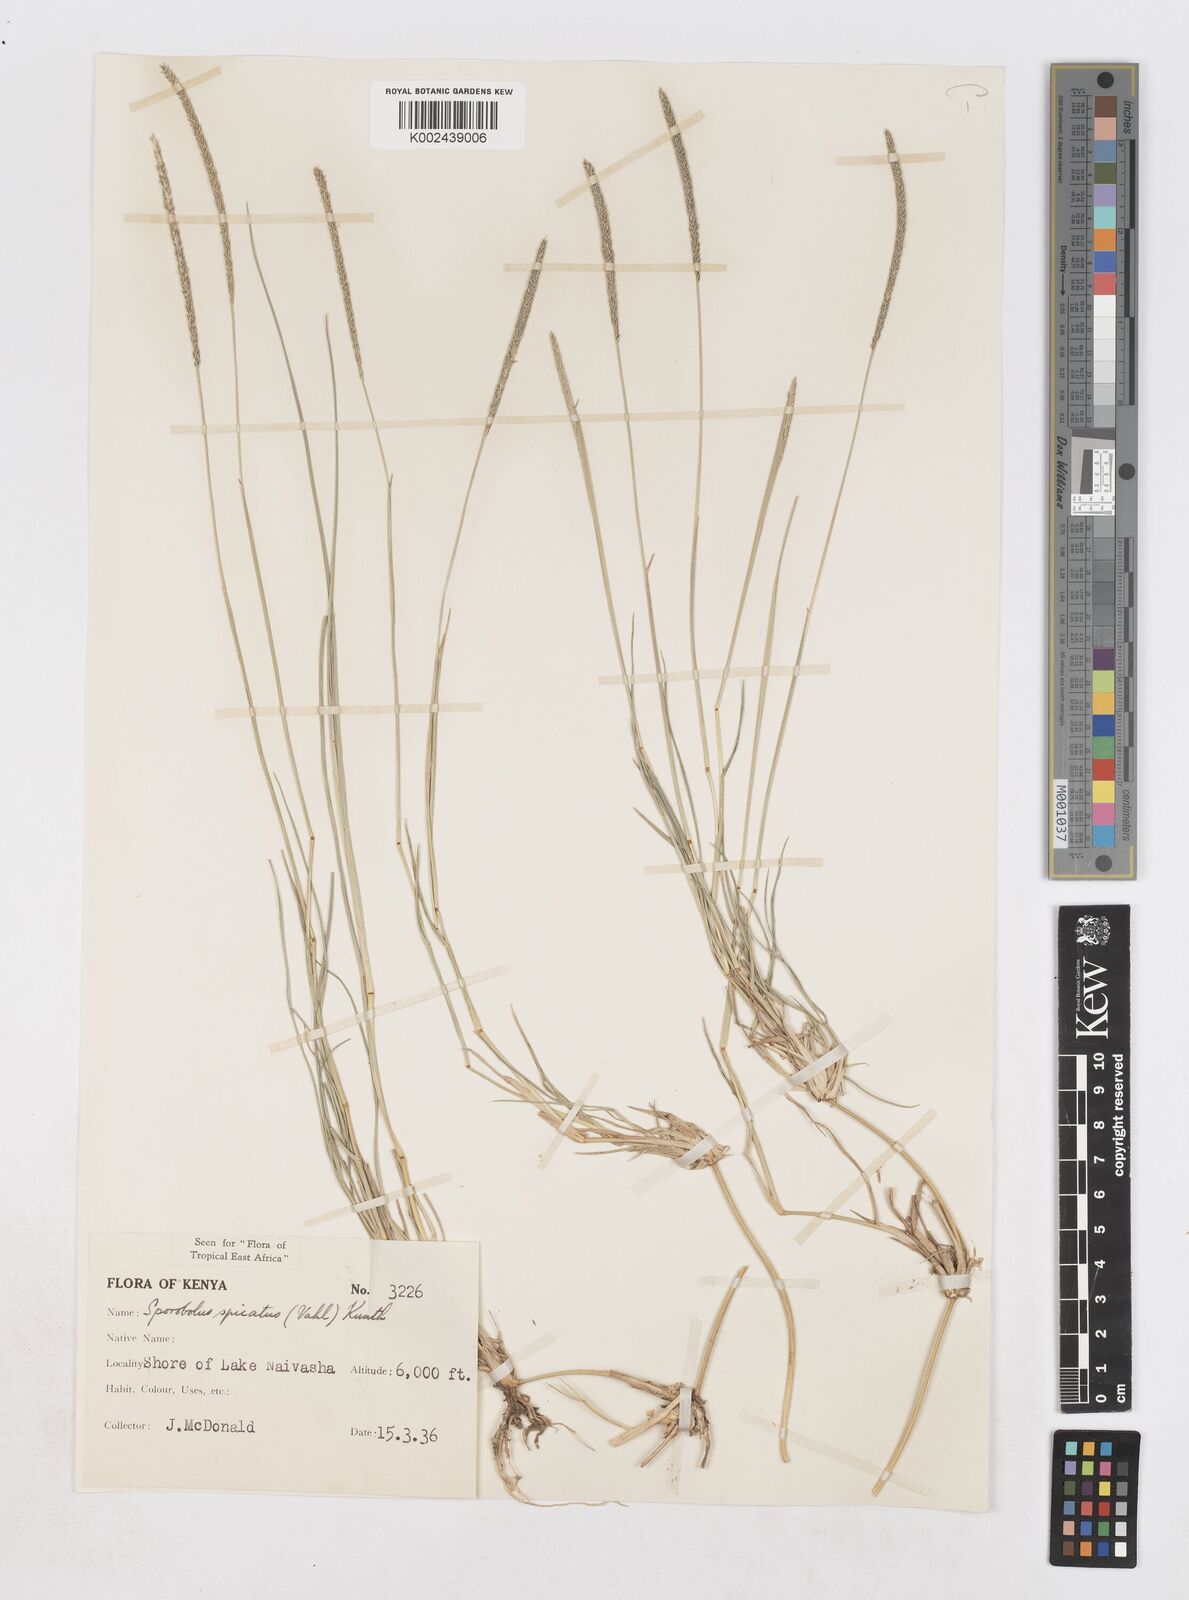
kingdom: Plantae
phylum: Tracheophyta
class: Liliopsida
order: Poales
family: Poaceae
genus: Sporobolus
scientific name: Sporobolus spicatus
